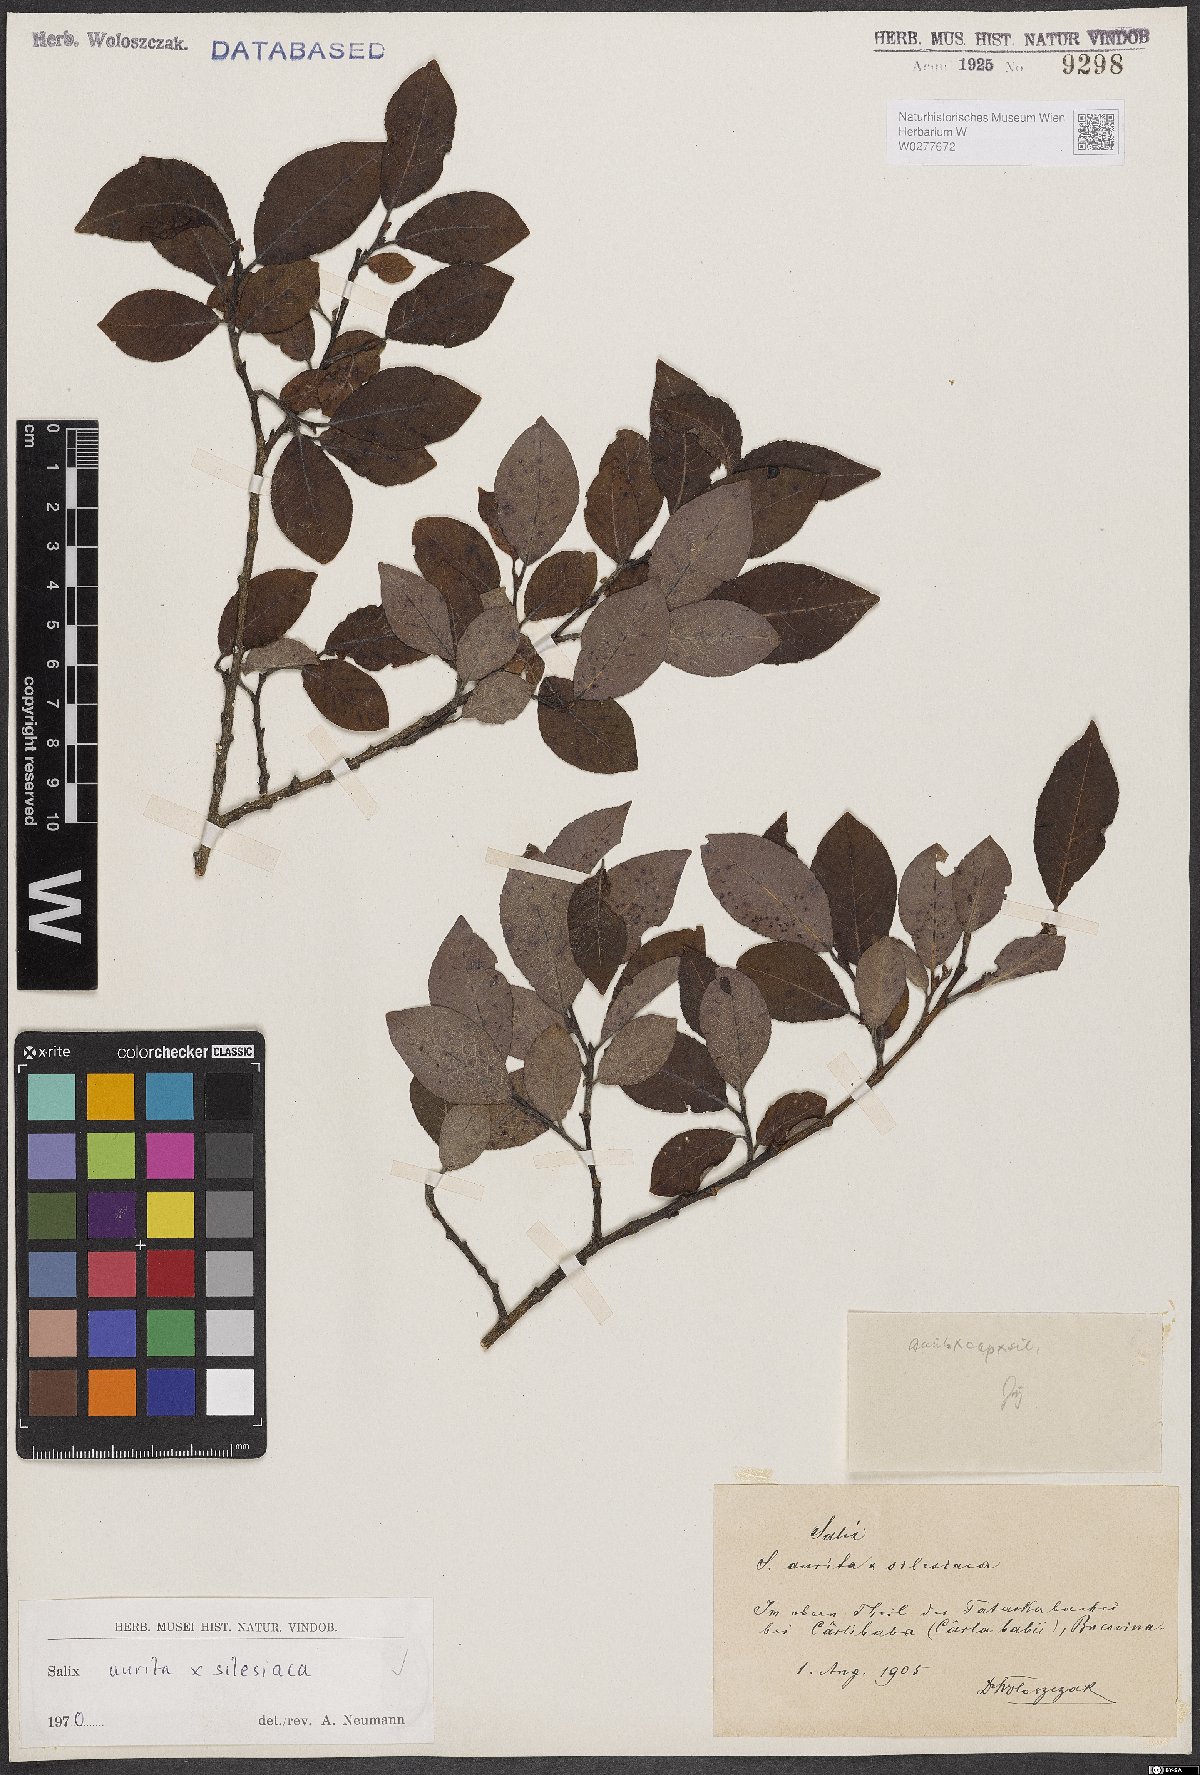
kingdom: Plantae
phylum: Tracheophyta
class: Magnoliopsida
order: Malpighiales
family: Salicaceae
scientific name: Salicaceae
